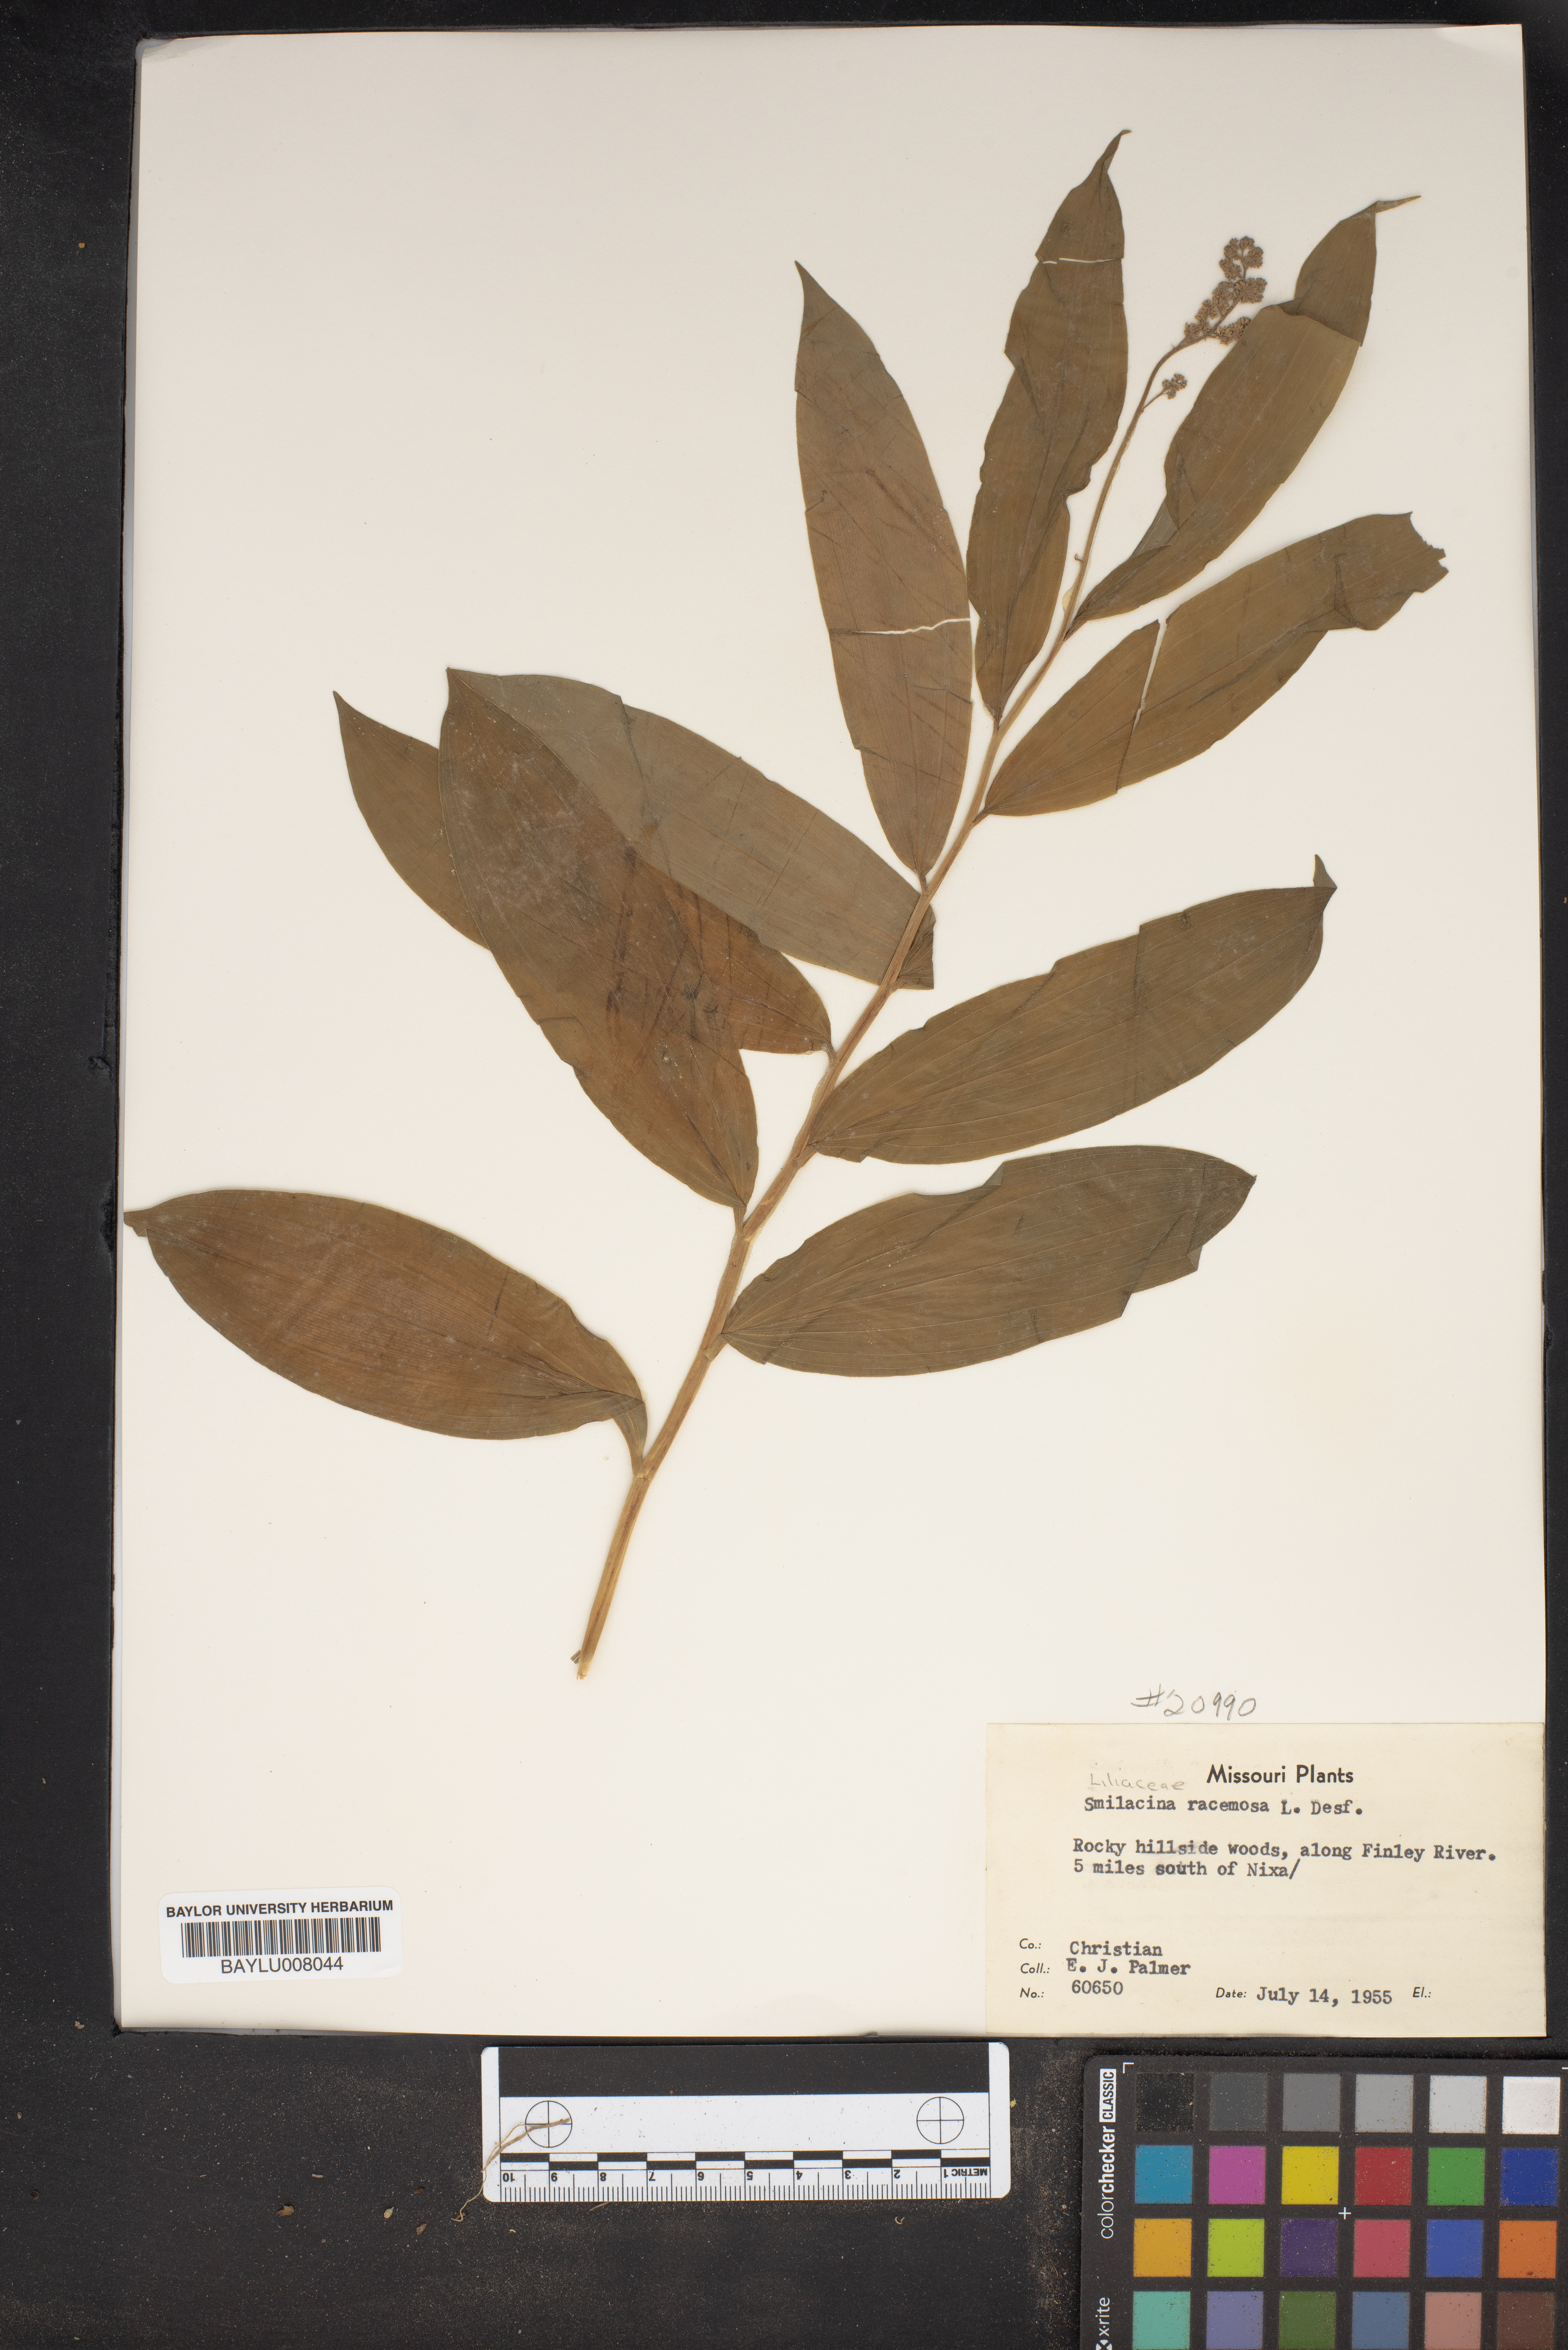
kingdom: Plantae
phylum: Tracheophyta
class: Liliopsida
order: Asparagales
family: Asparagaceae
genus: Maianthemum
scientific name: Maianthemum racemosum
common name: False spikenard
